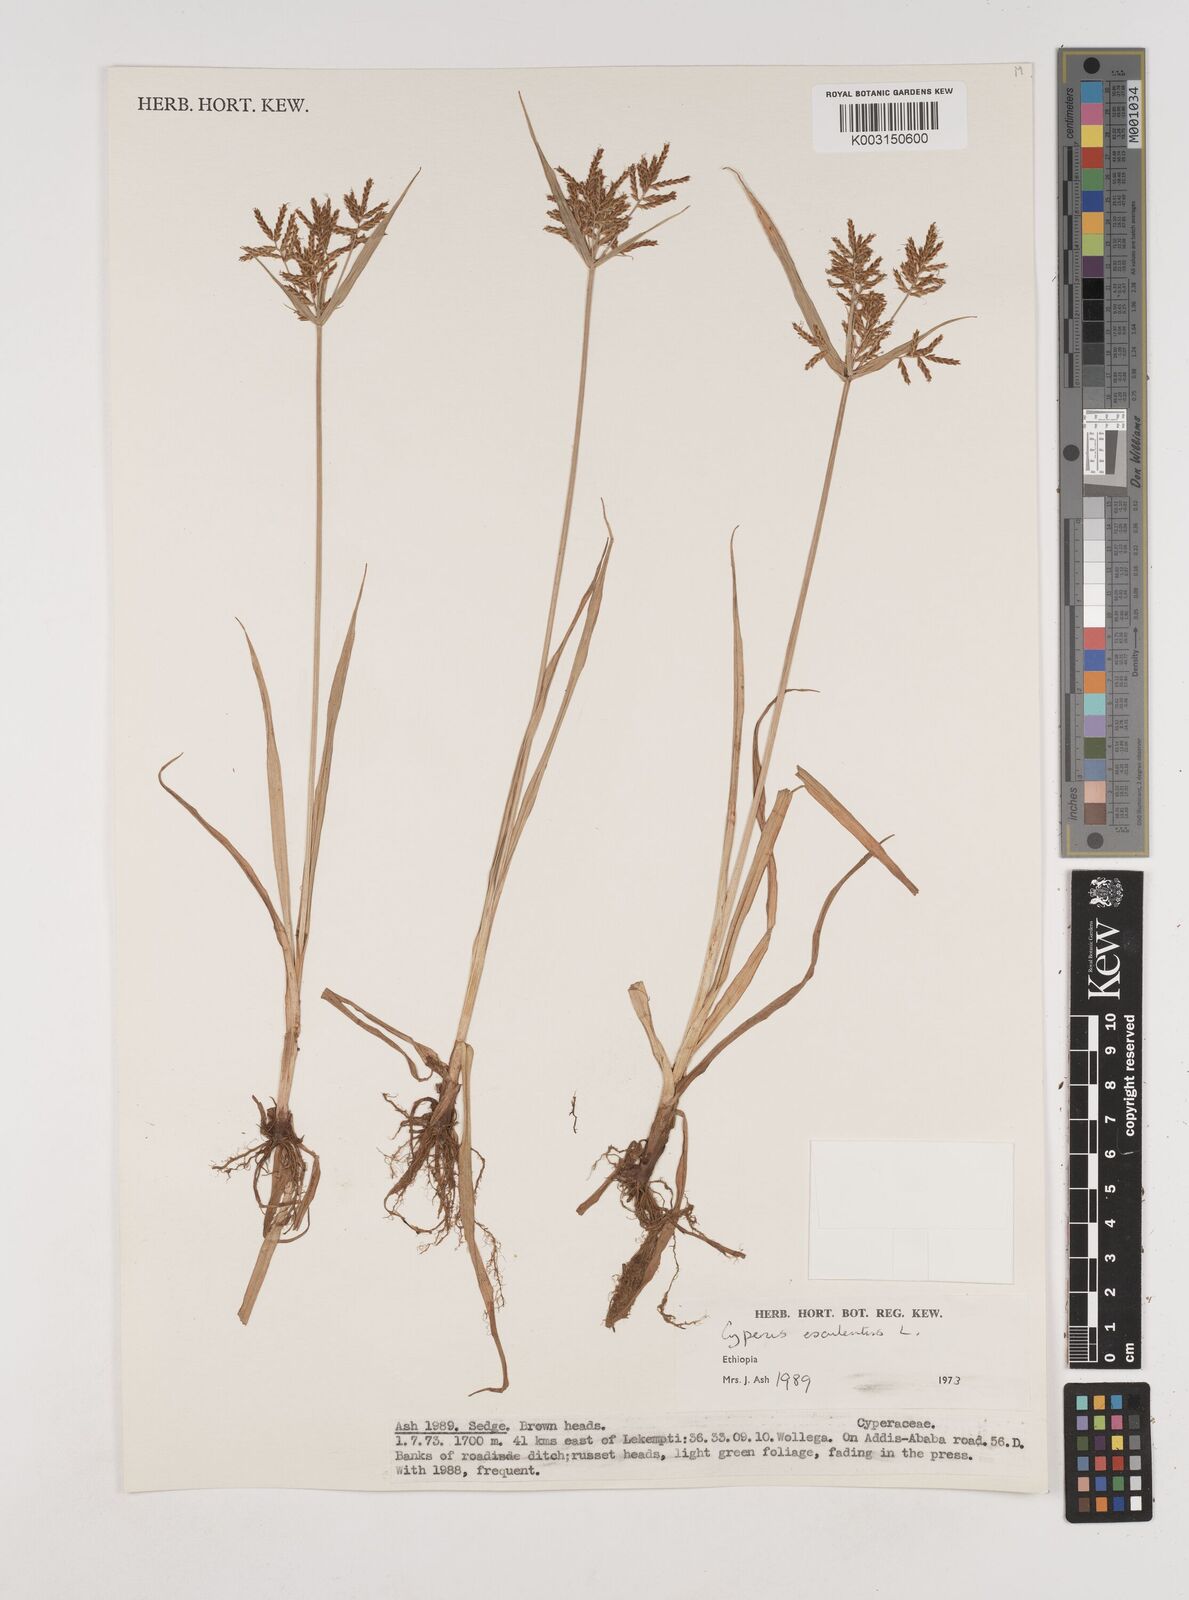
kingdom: Plantae
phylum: Tracheophyta
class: Liliopsida
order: Poales
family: Cyperaceae
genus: Cyperus
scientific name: Cyperus esculentus
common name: Yellow nutsedge
